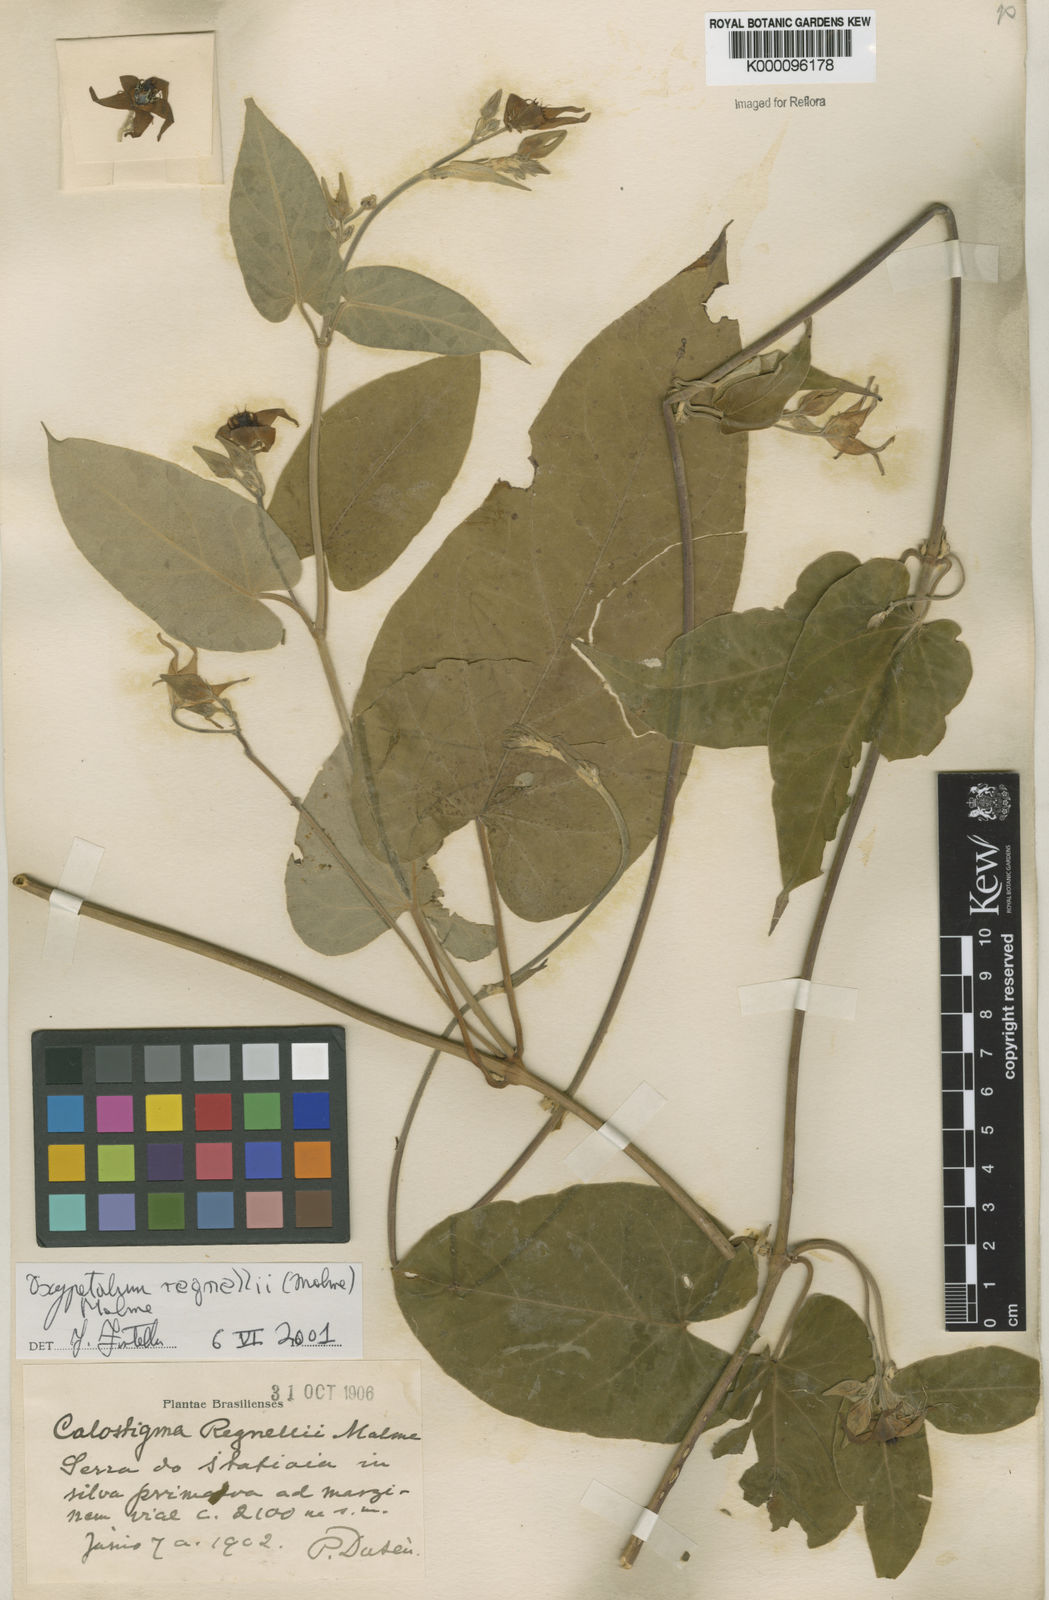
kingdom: Plantae
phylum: Tracheophyta
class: Magnoliopsida
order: Gentianales
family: Apocynaceae
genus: Oxypetalum
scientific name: Oxypetalum regnellii
